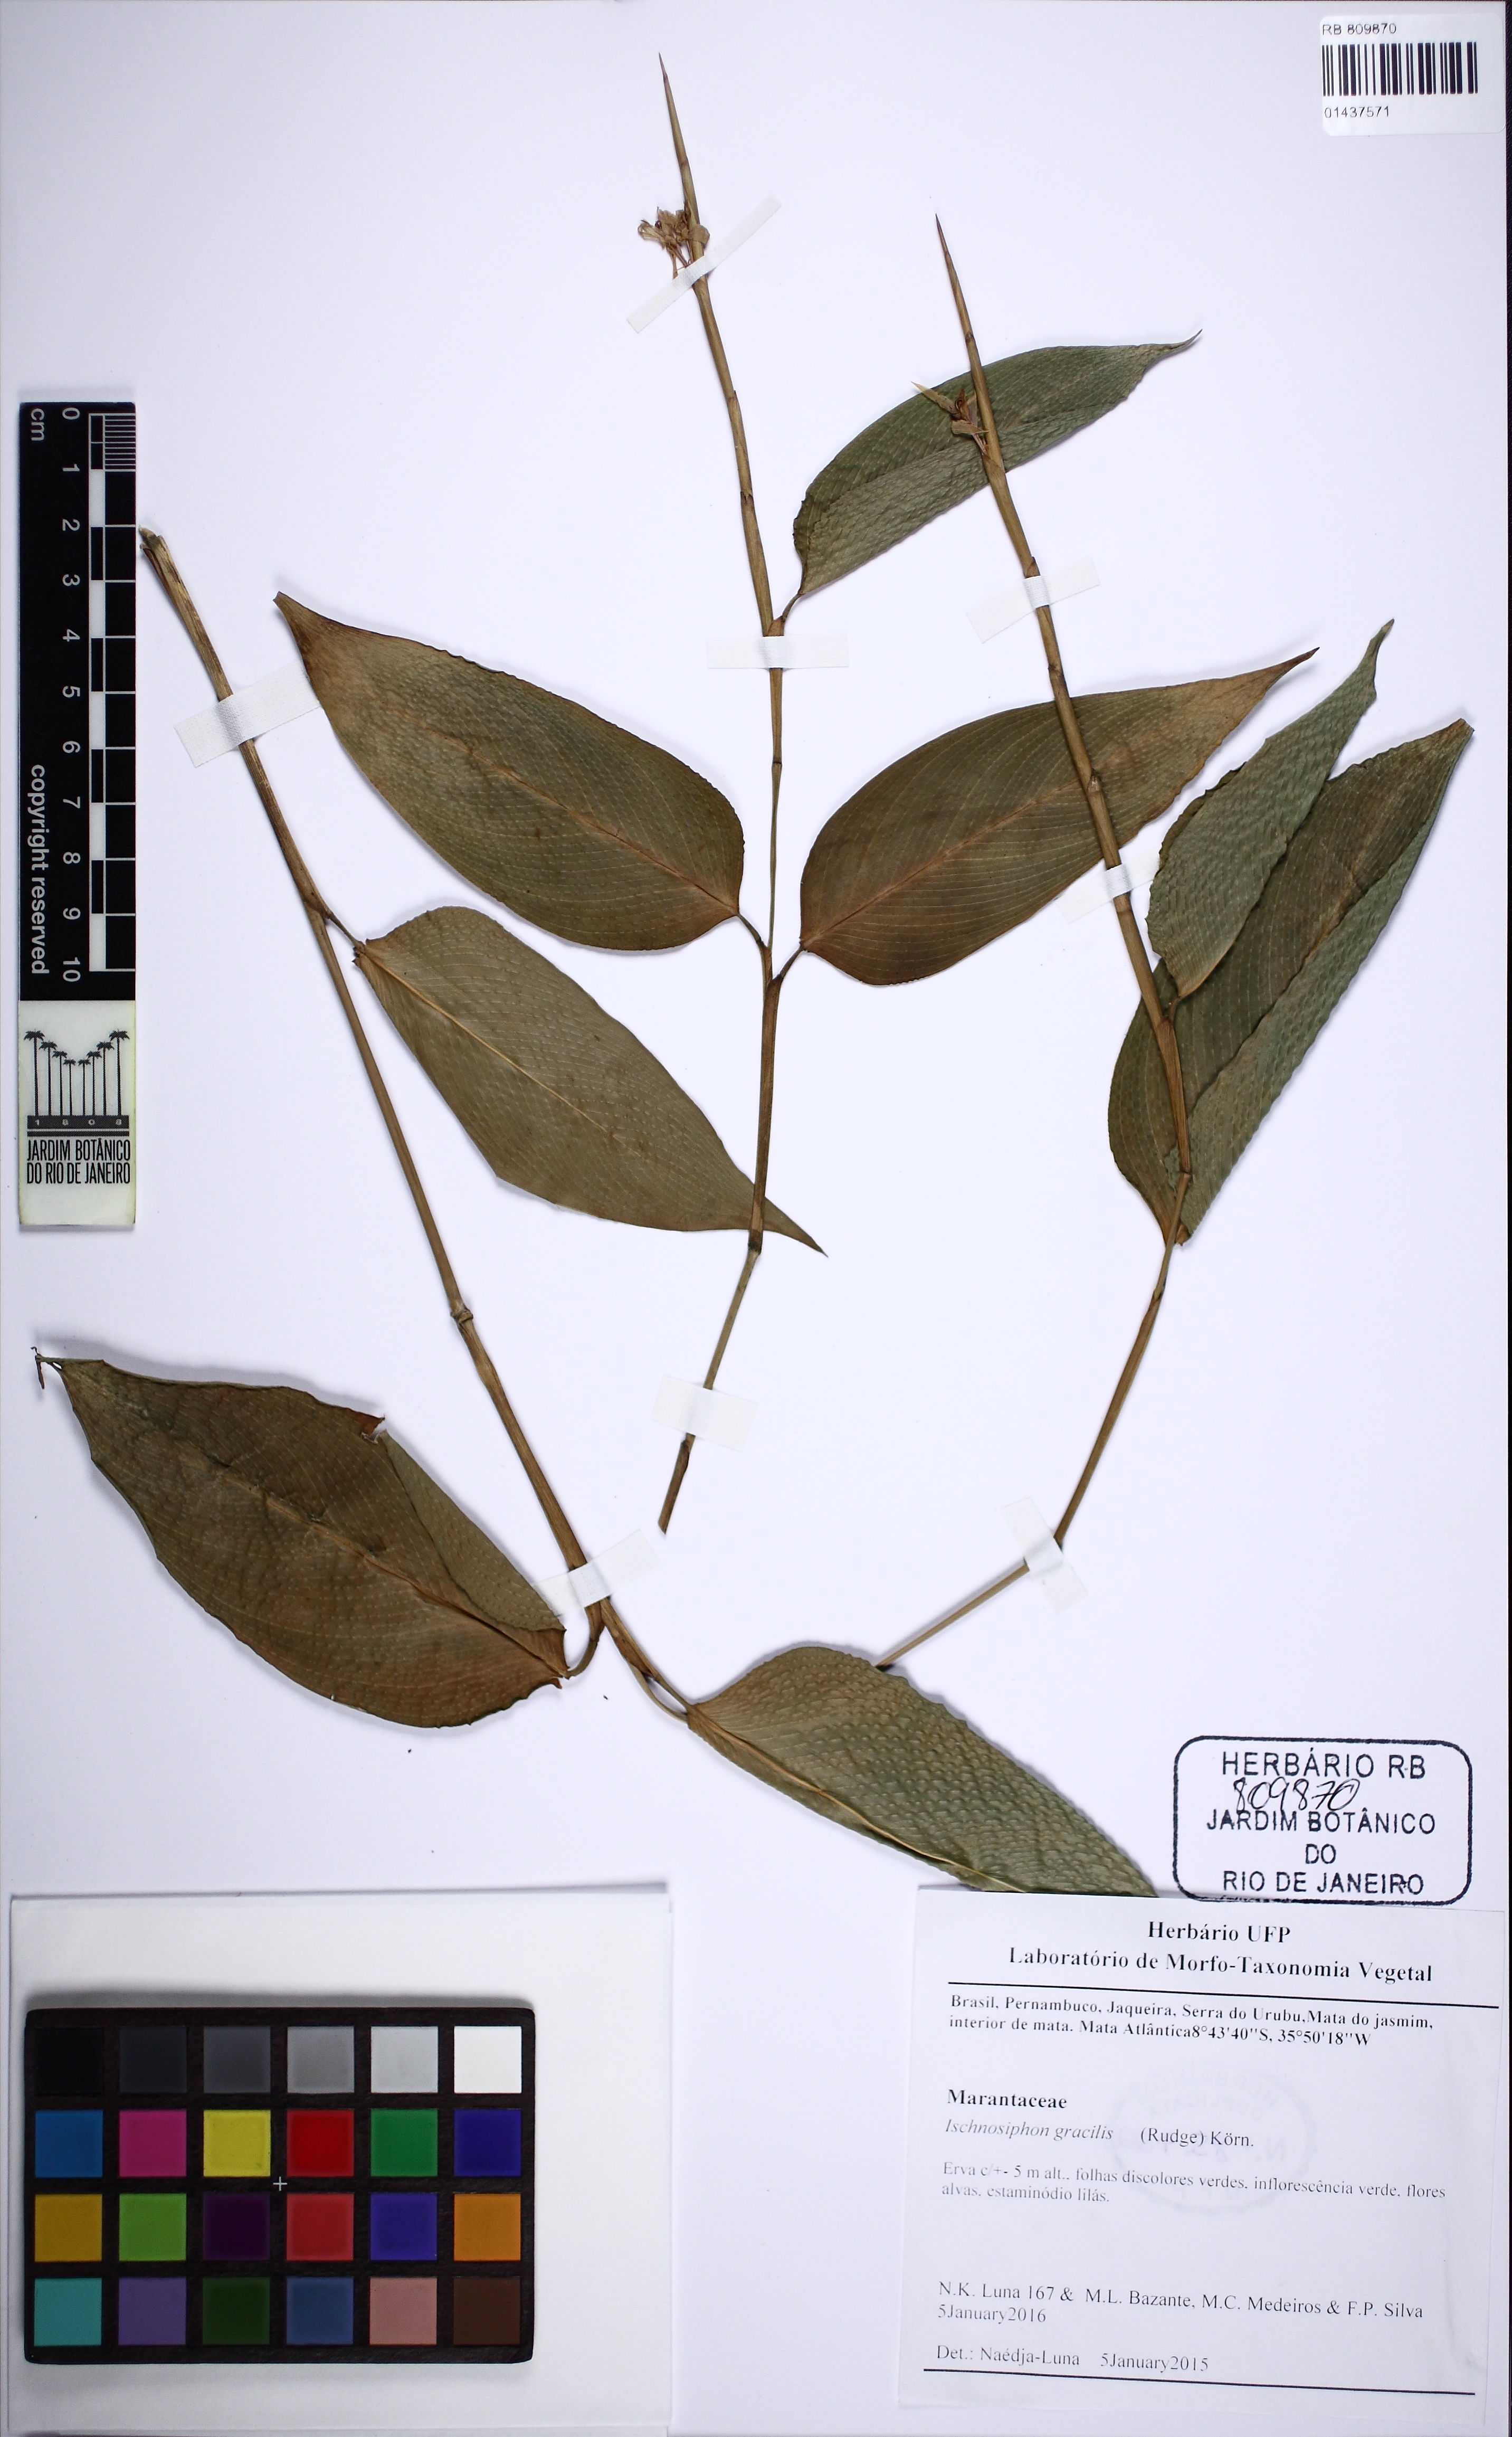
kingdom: Plantae
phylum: Tracheophyta
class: Liliopsida
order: Zingiberales
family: Marantaceae
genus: Ischnosiphon
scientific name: Ischnosiphon gracilis
